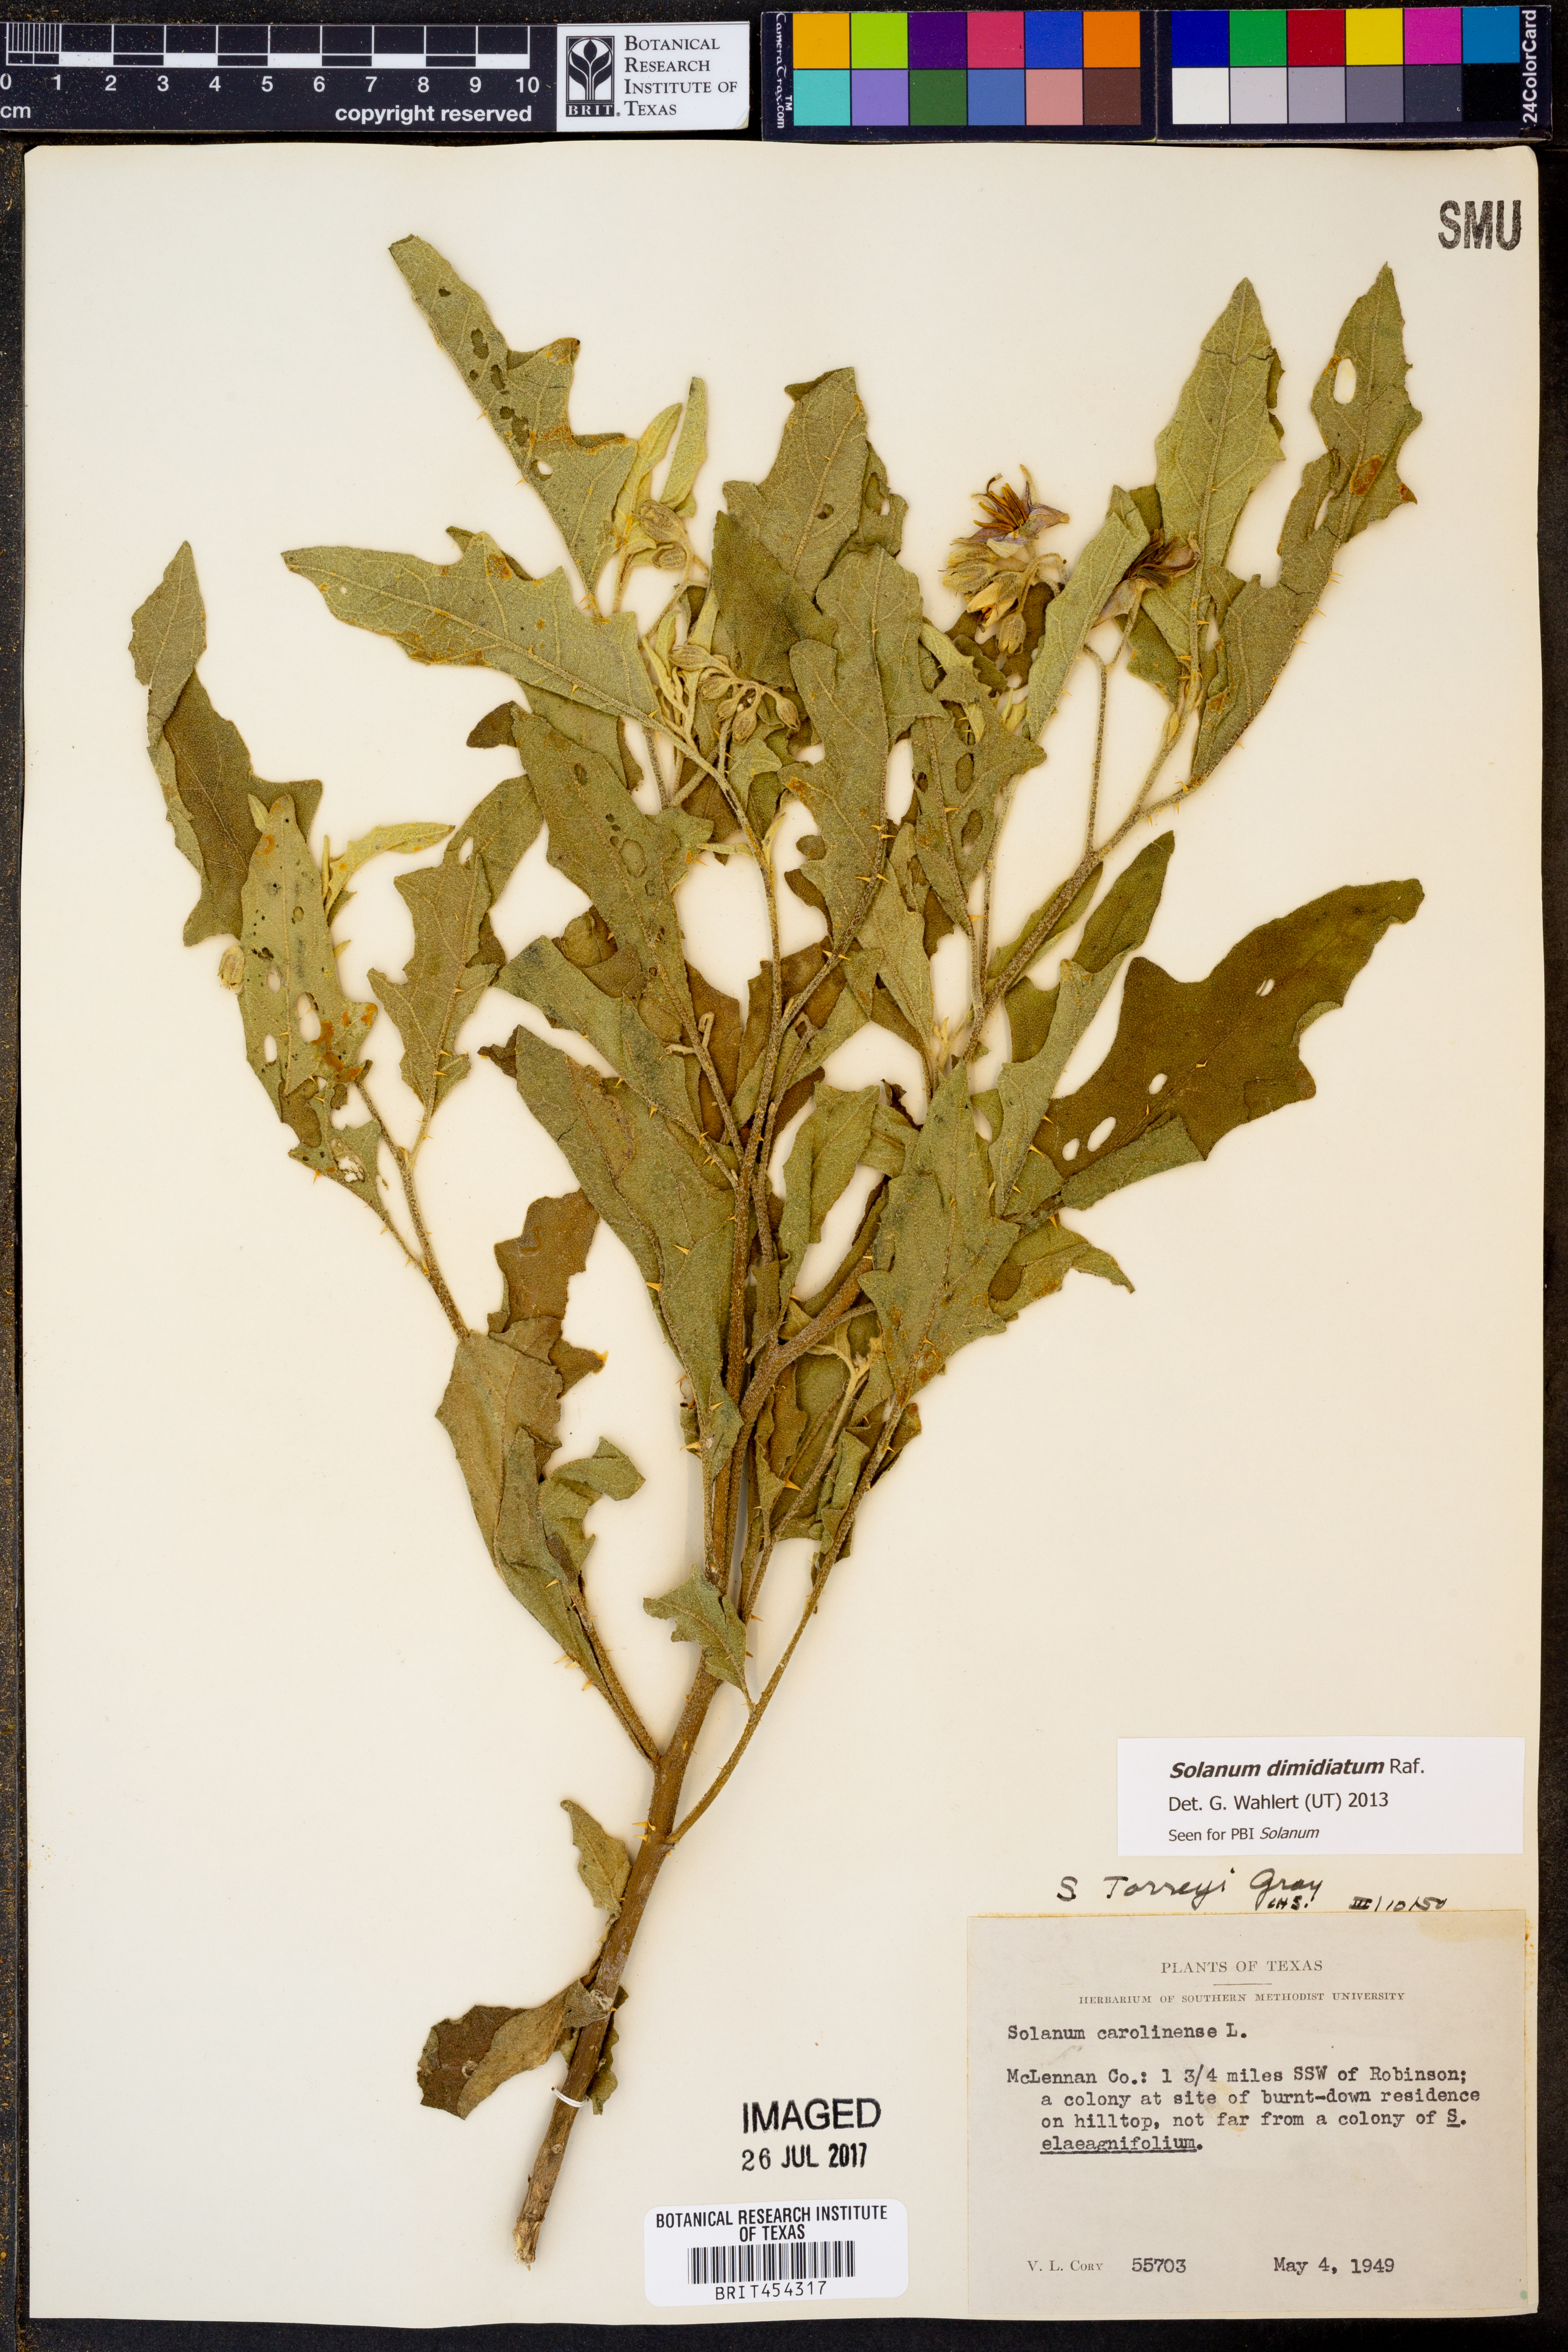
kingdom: Plantae
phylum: Tracheophyta
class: Magnoliopsida
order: Solanales
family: Solanaceae
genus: Solanum
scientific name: Solanum carolinense
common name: Horse-nettle
